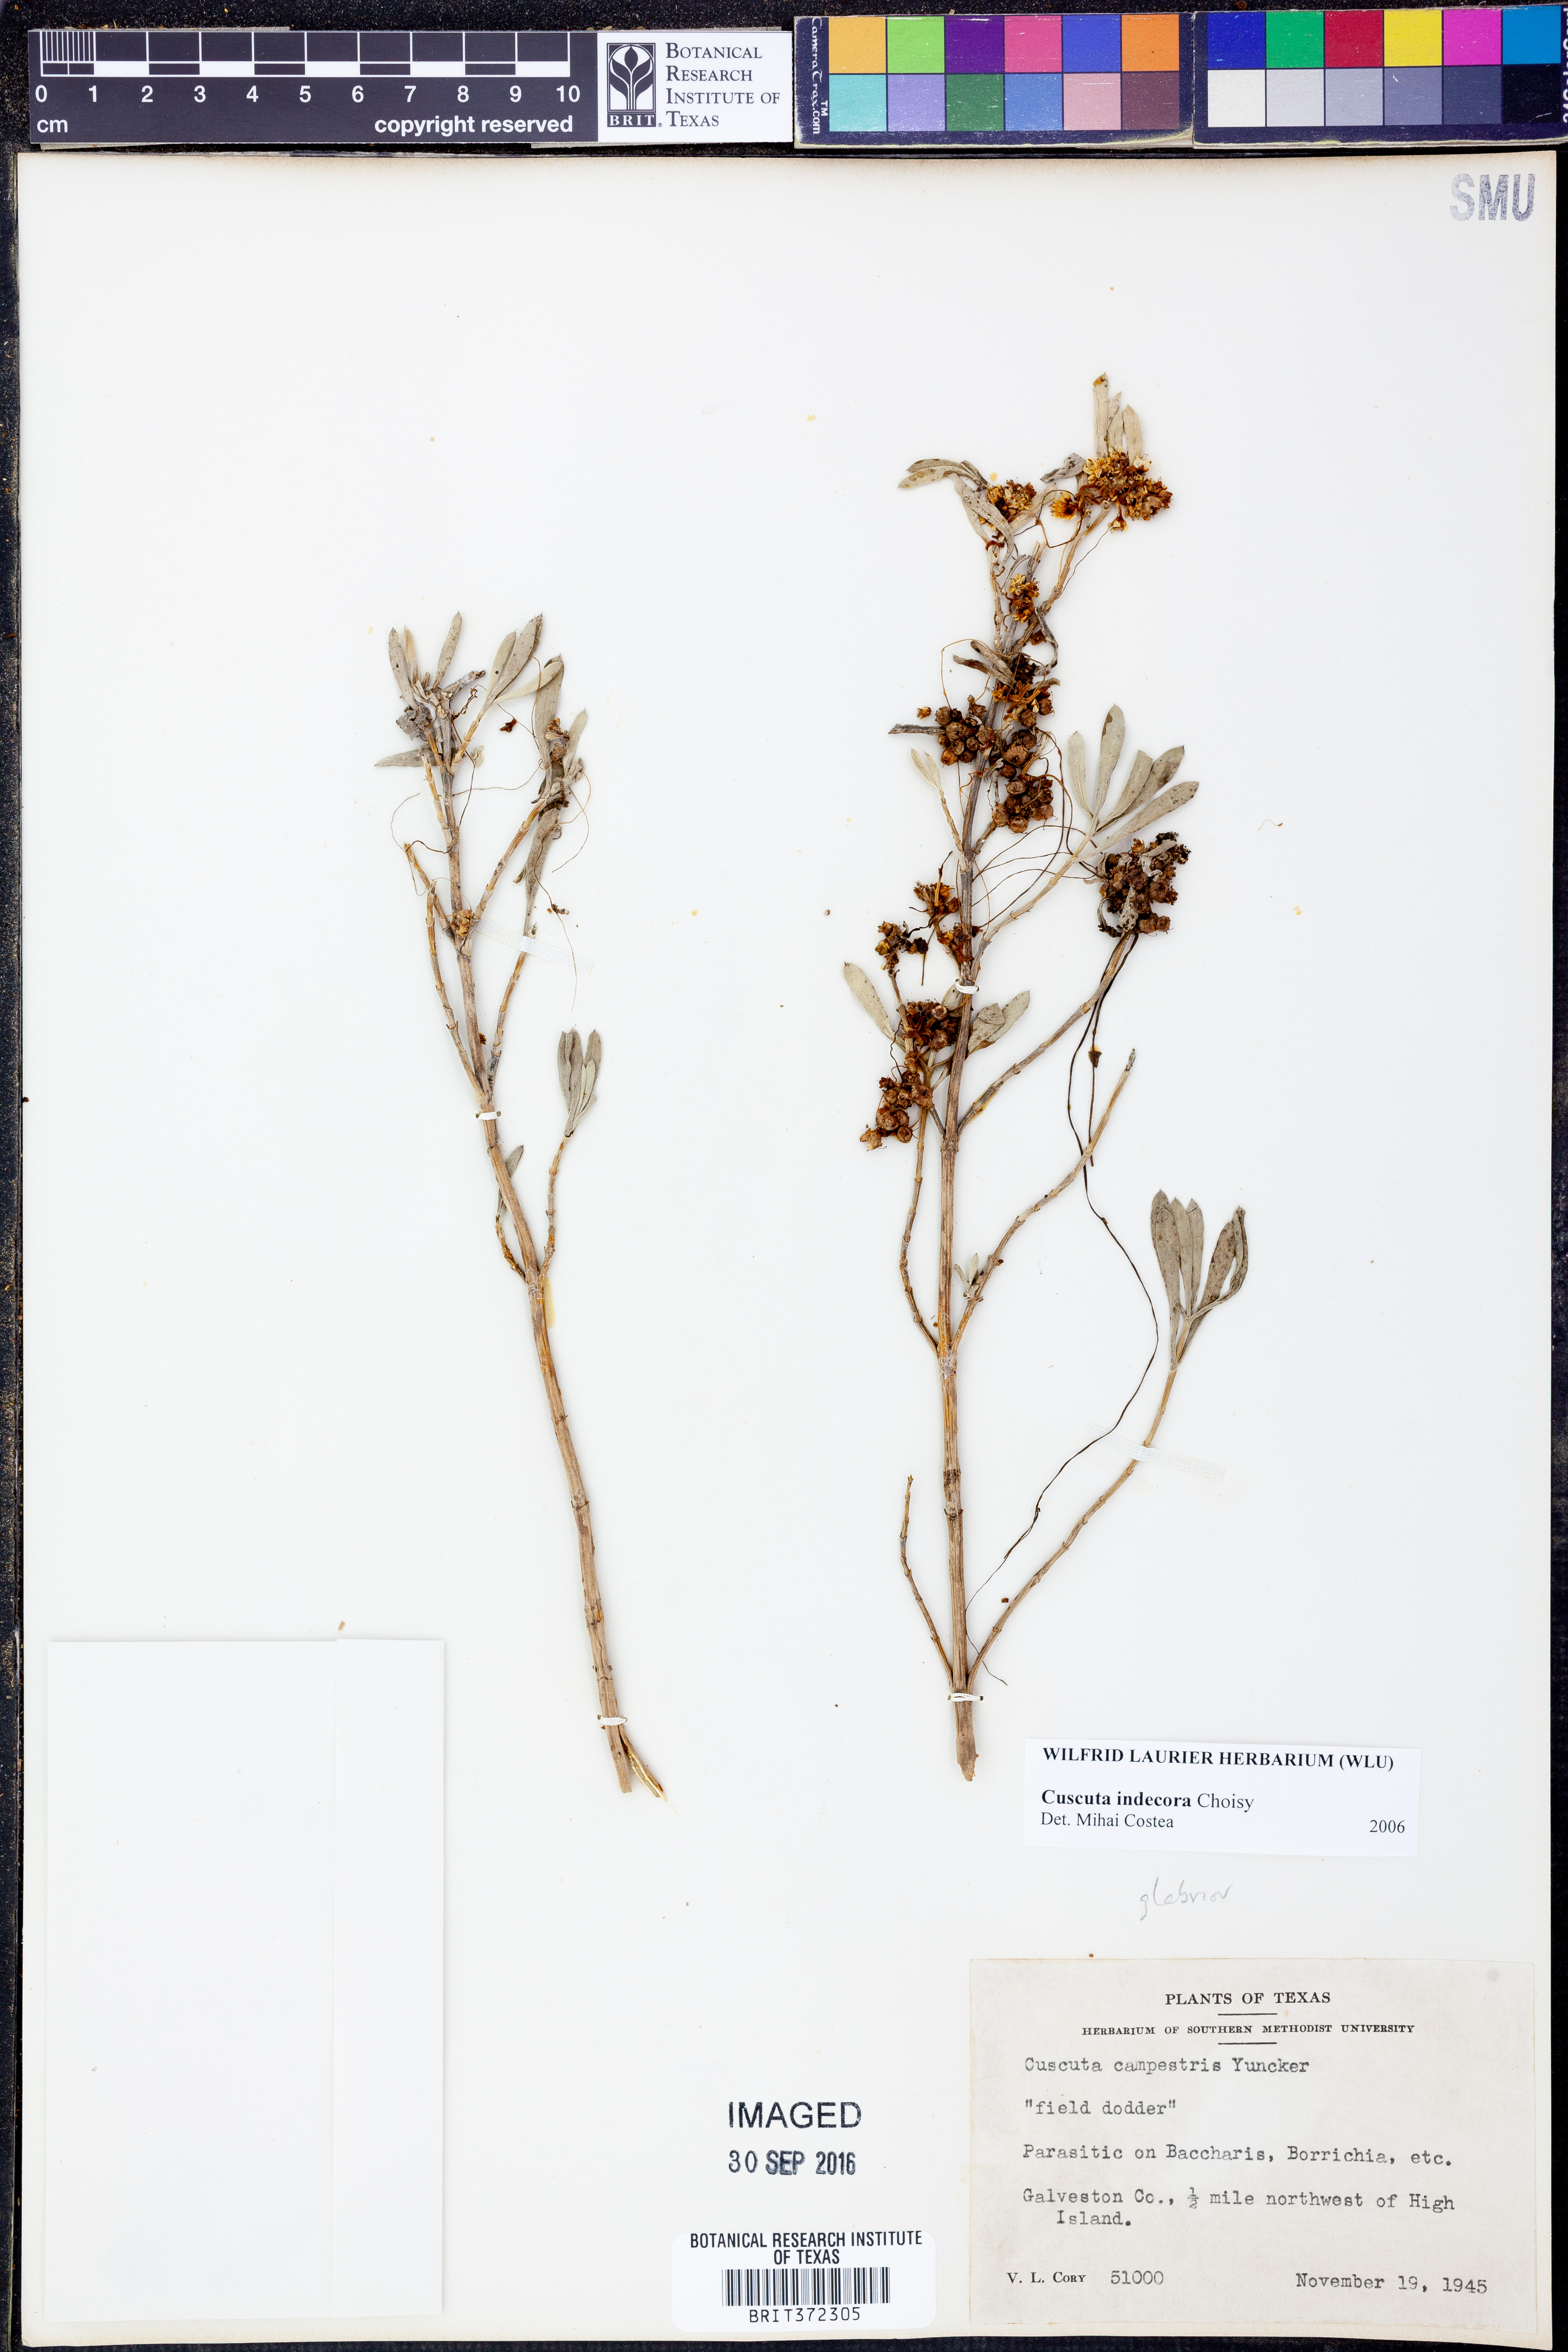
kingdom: Plantae
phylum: Tracheophyta
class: Magnoliopsida
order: Solanales
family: Convolvulaceae
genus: Cuscuta
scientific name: Cuscuta indecora
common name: Large-seed dodder
